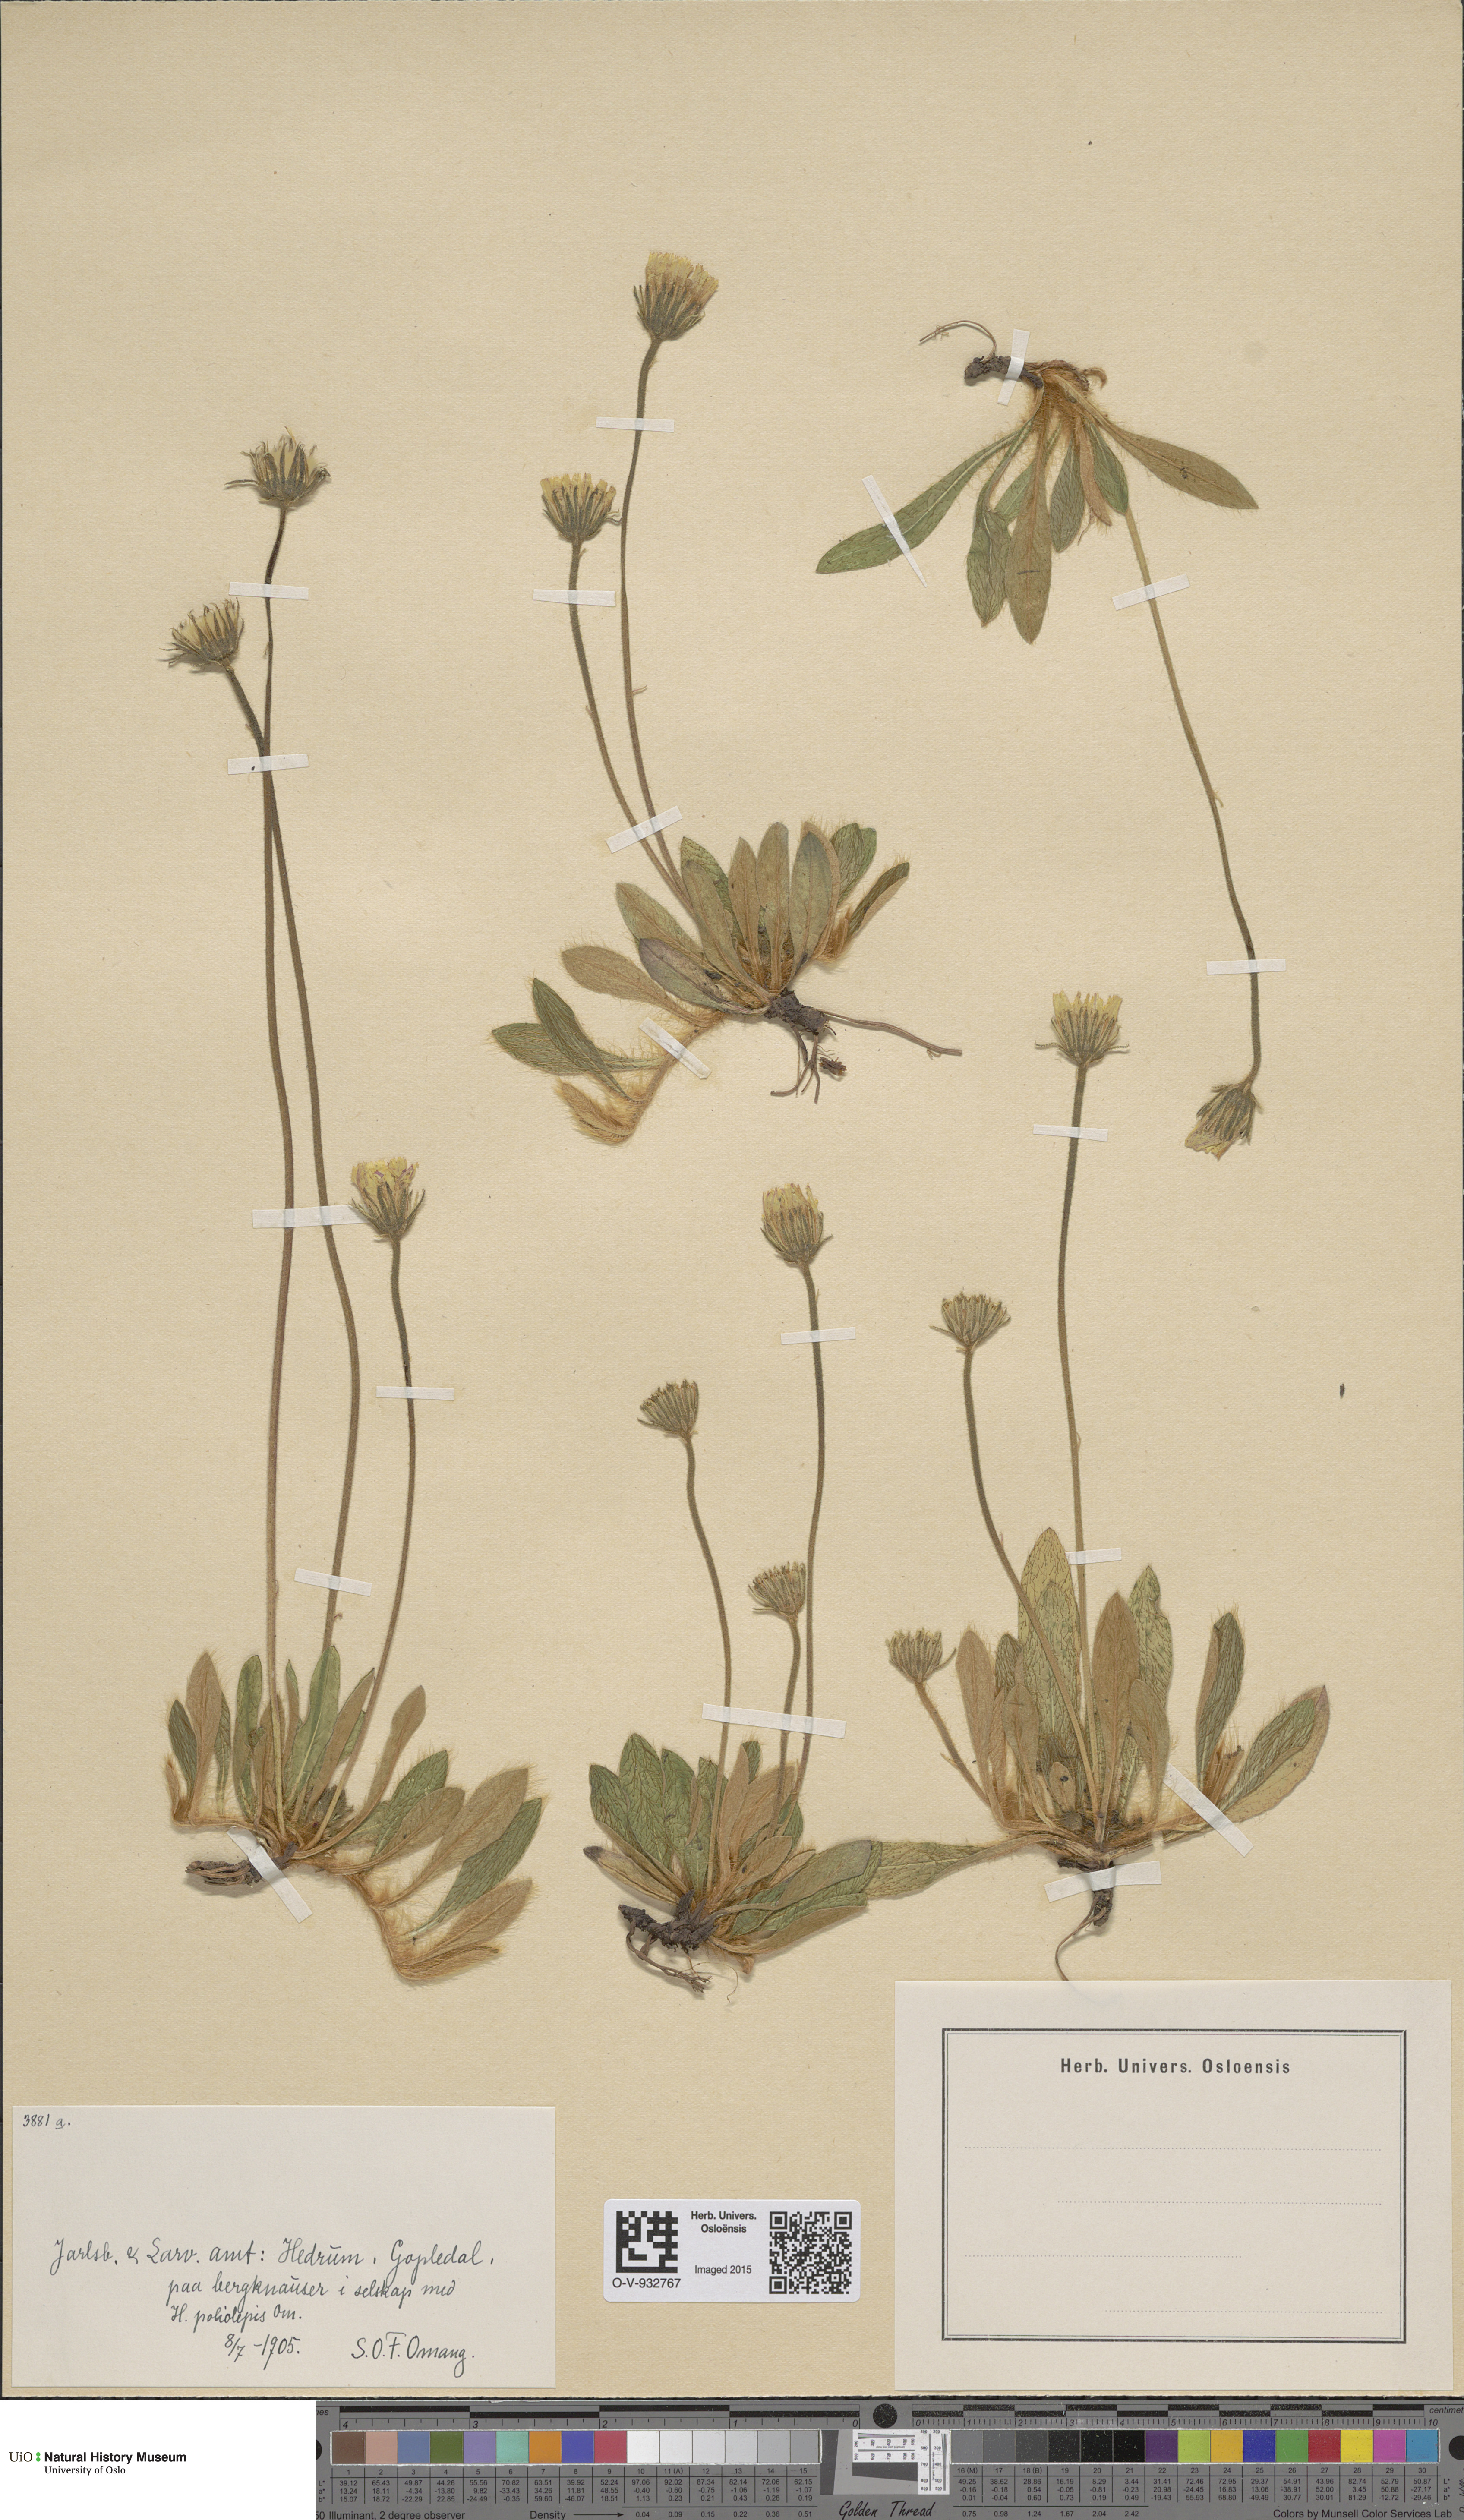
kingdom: Plantae
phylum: Tracheophyta
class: Magnoliopsida
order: Asterales
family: Asteraceae
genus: Pilosella
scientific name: Pilosella officinarum
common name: Mouse-ear hawkweed
